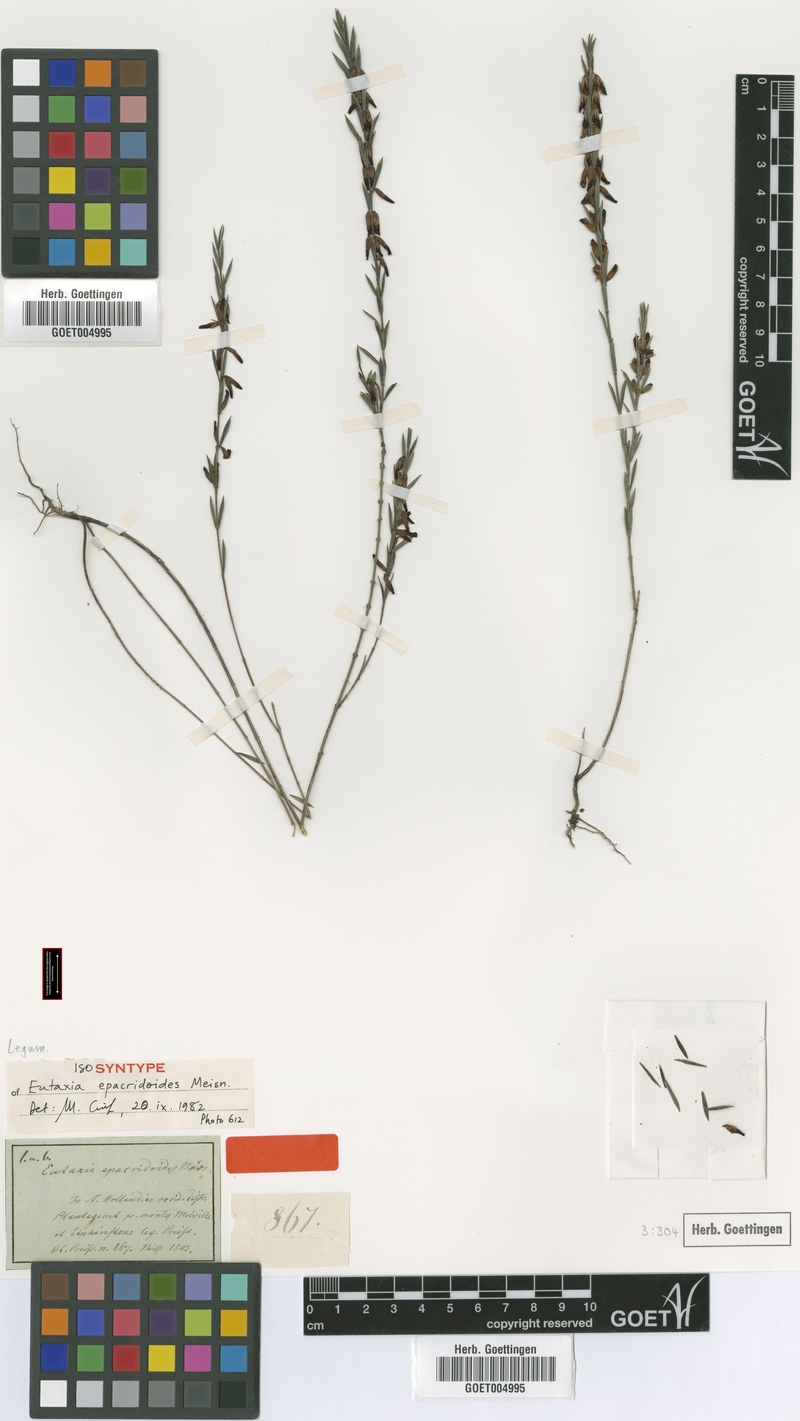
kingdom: Plantae
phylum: Tracheophyta
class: Magnoliopsida
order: Fabales
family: Fabaceae
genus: Eutaxia
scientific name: Eutaxia epacridoides
